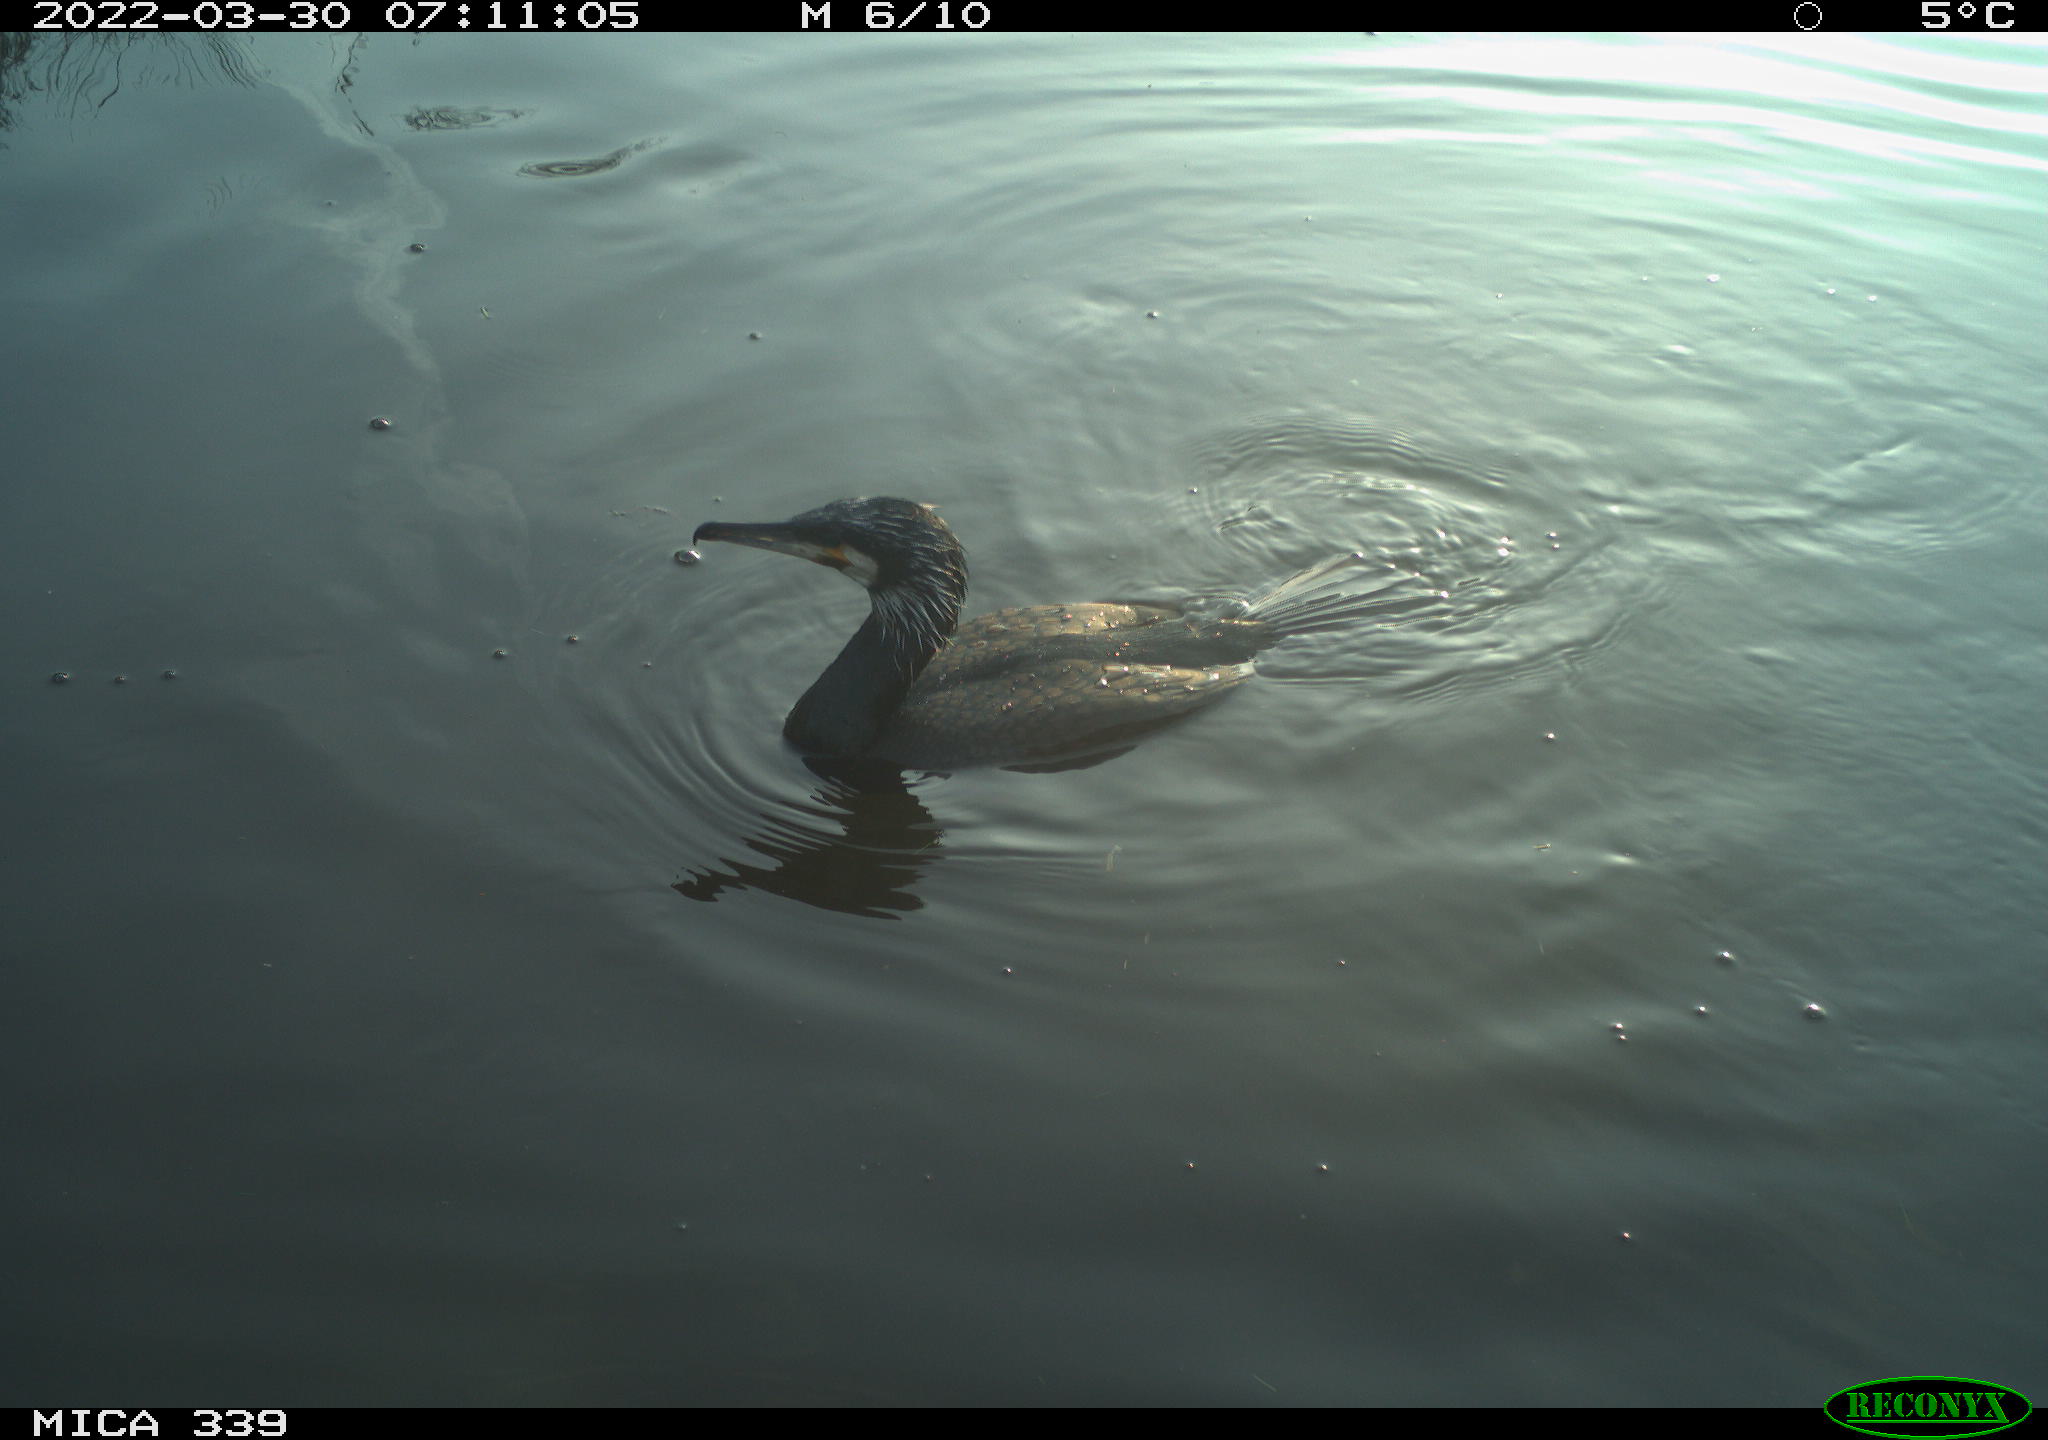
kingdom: Animalia
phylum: Chordata
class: Aves
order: Suliformes
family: Phalacrocoracidae
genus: Phalacrocorax
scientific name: Phalacrocorax carbo
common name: Great cormorant
